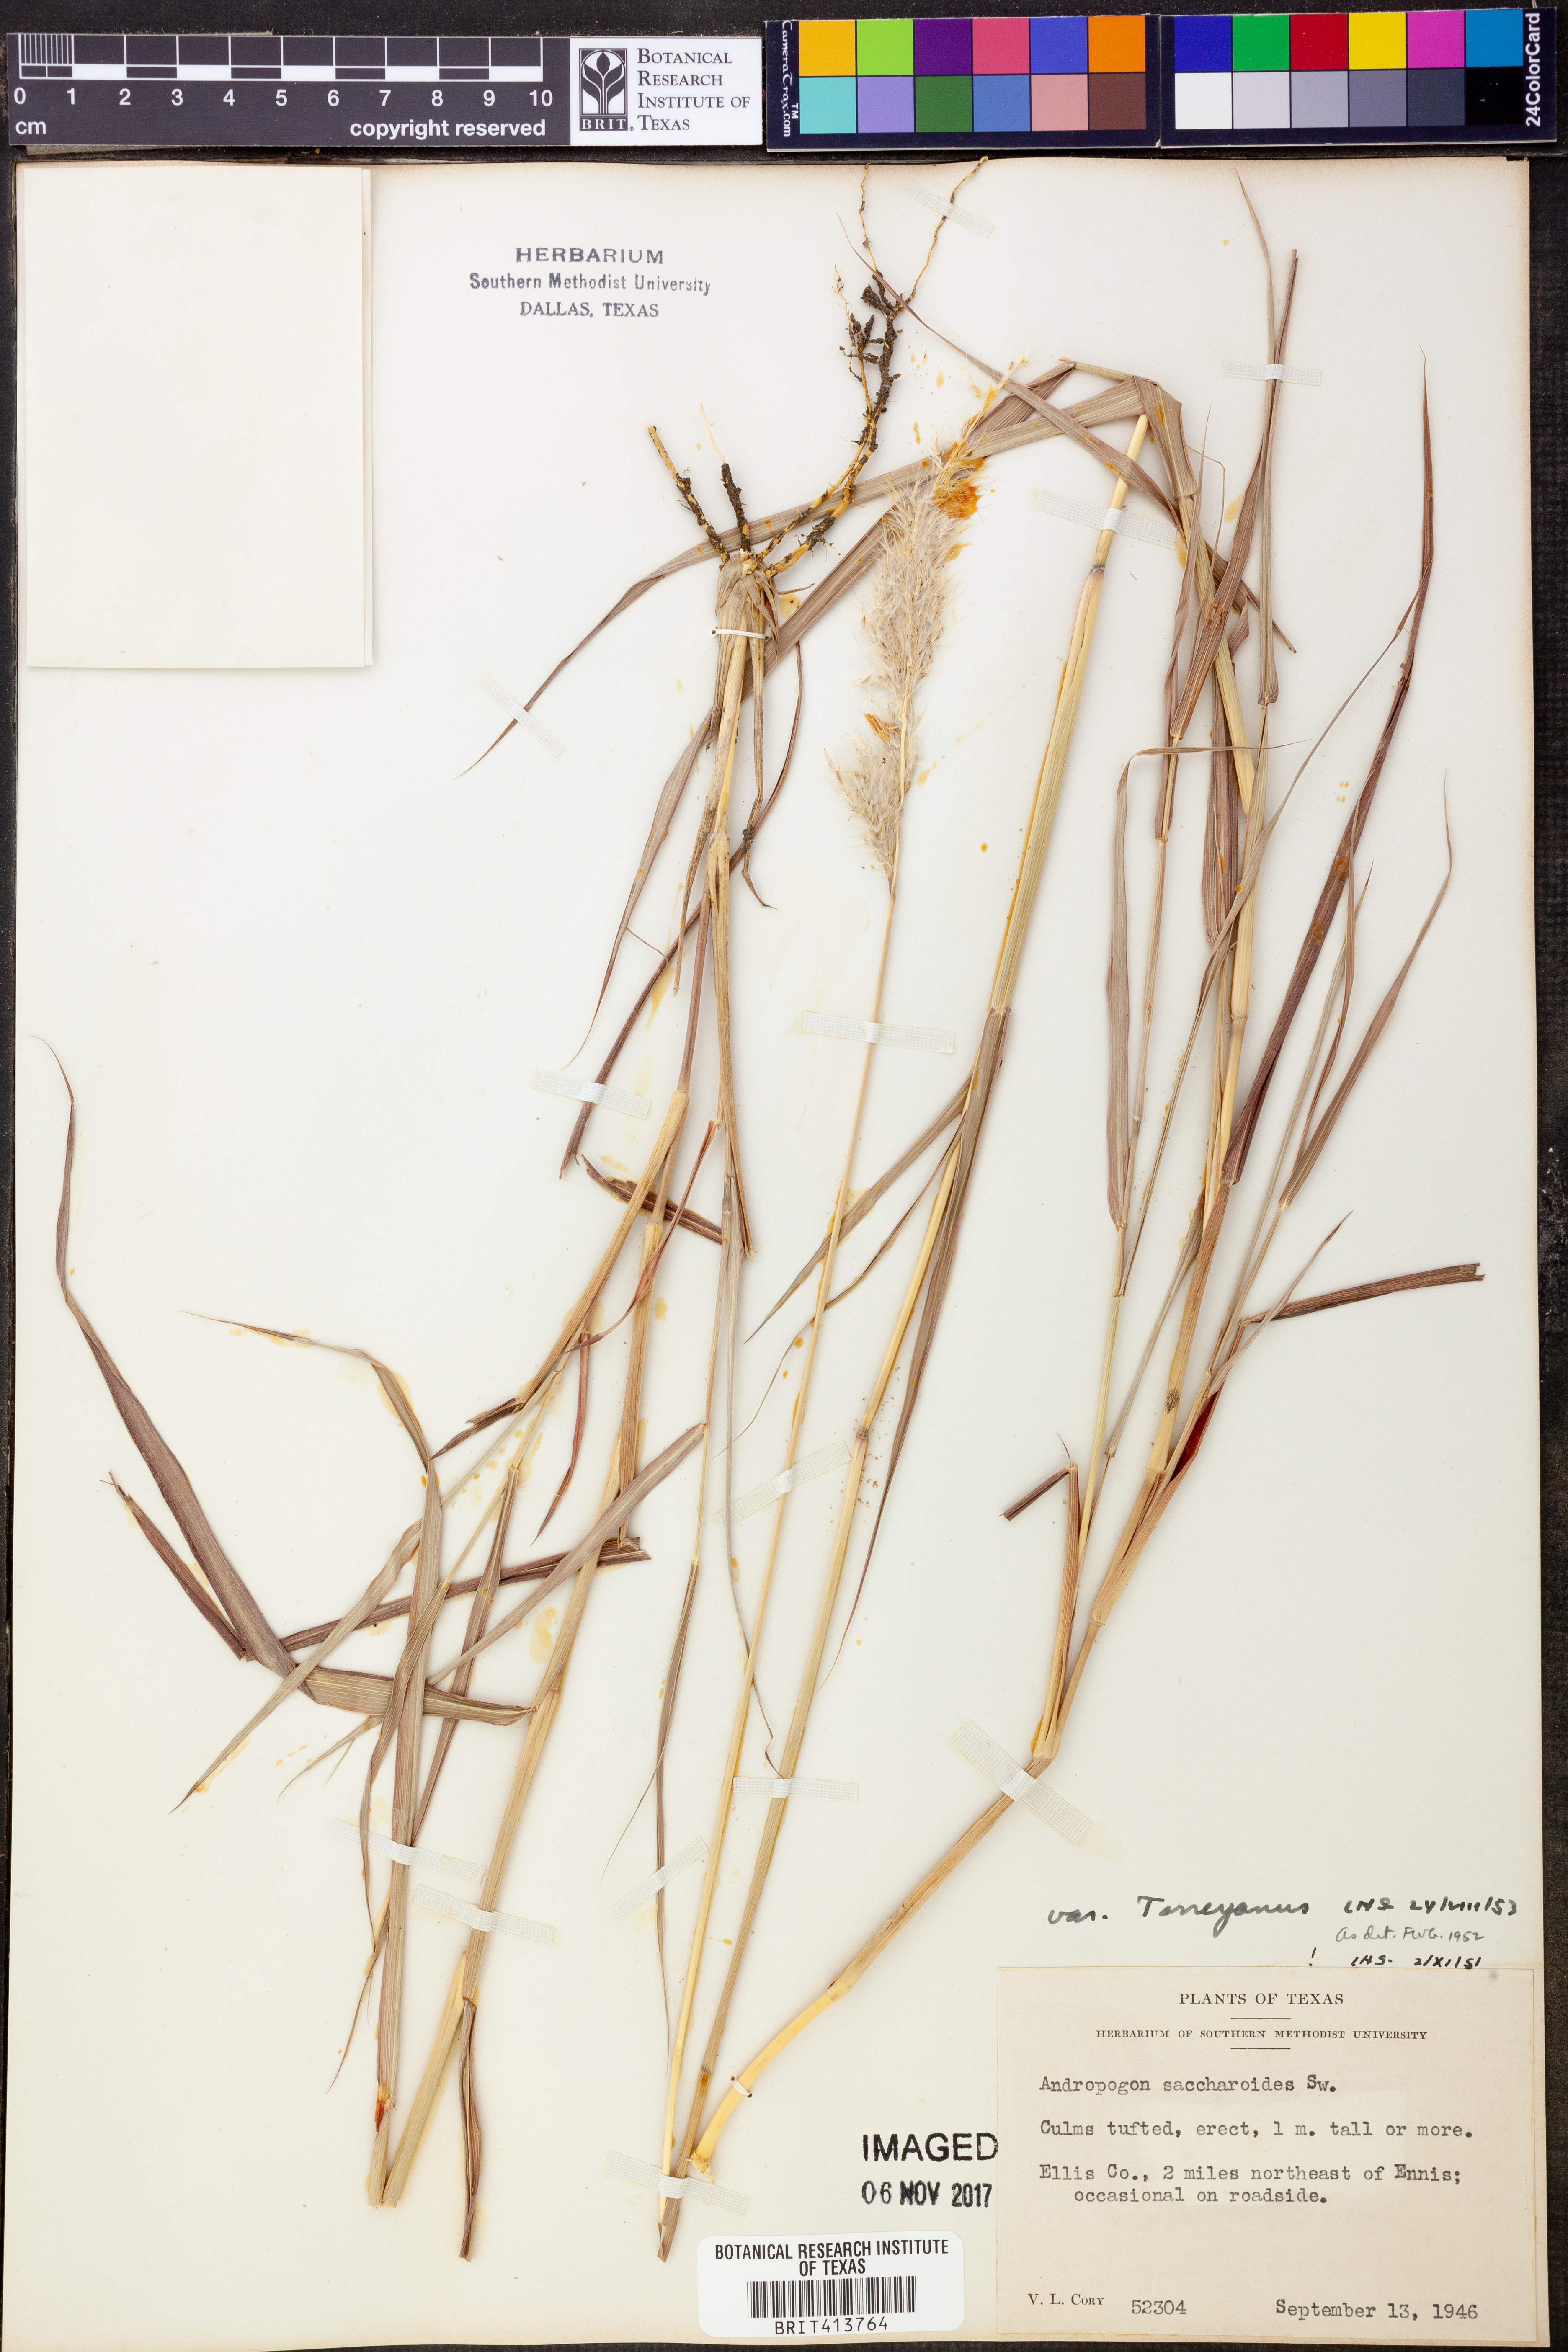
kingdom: Plantae
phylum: Tracheophyta
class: Liliopsida
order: Poales
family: Poaceae
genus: Bothriochloa
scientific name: Bothriochloa torreyana
